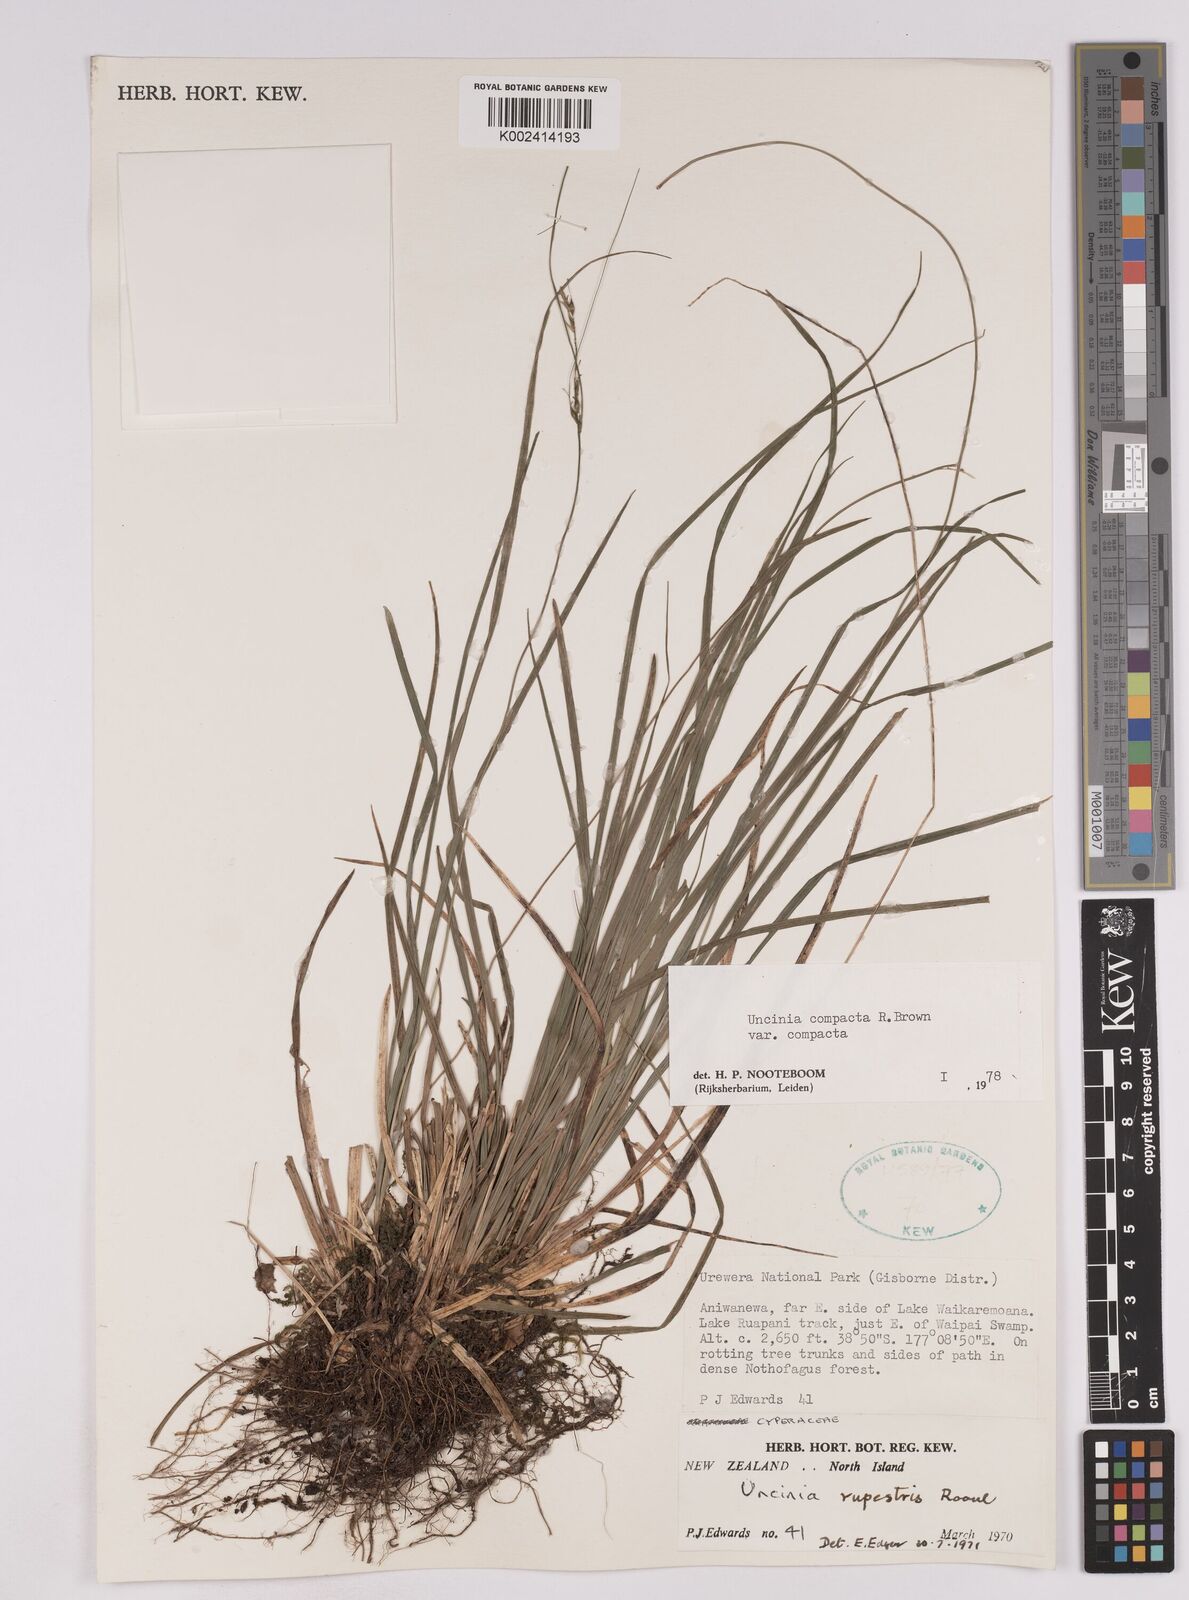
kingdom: Plantae
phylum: Tracheophyta
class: Liliopsida
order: Poales
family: Cyperaceae
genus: Carex
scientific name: Carex austrocompacta
